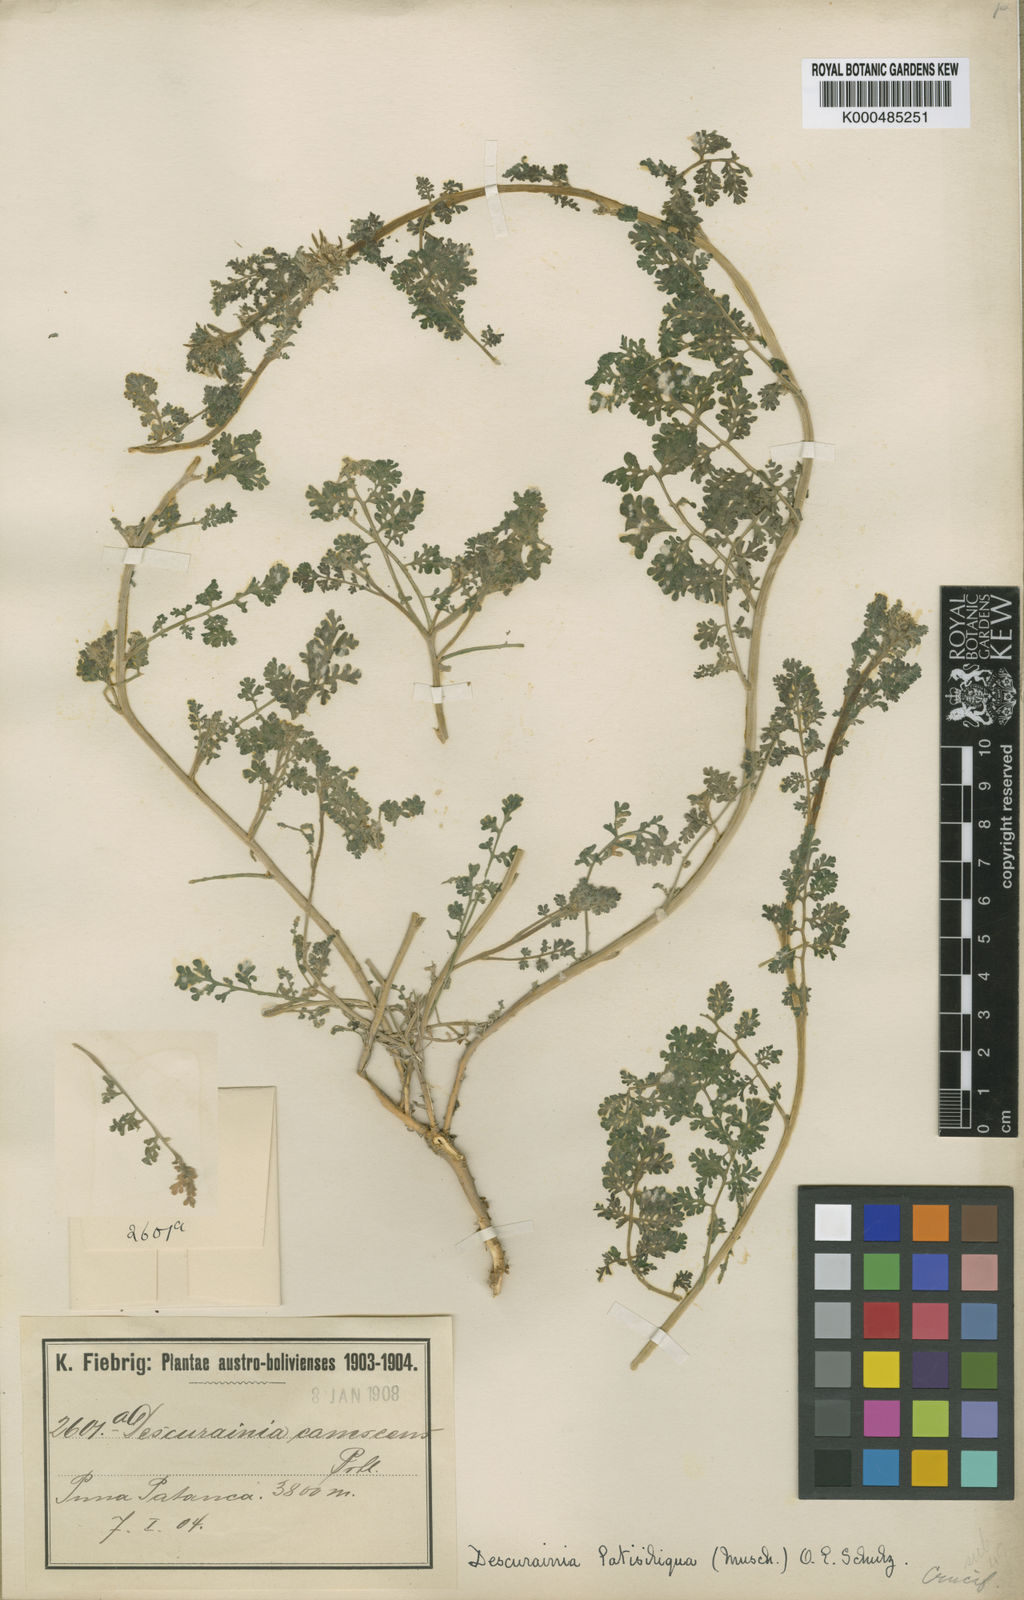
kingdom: Plantae
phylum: Tracheophyta
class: Magnoliopsida
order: Brassicales
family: Brassicaceae
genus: Descurainia
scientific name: Descurainia
